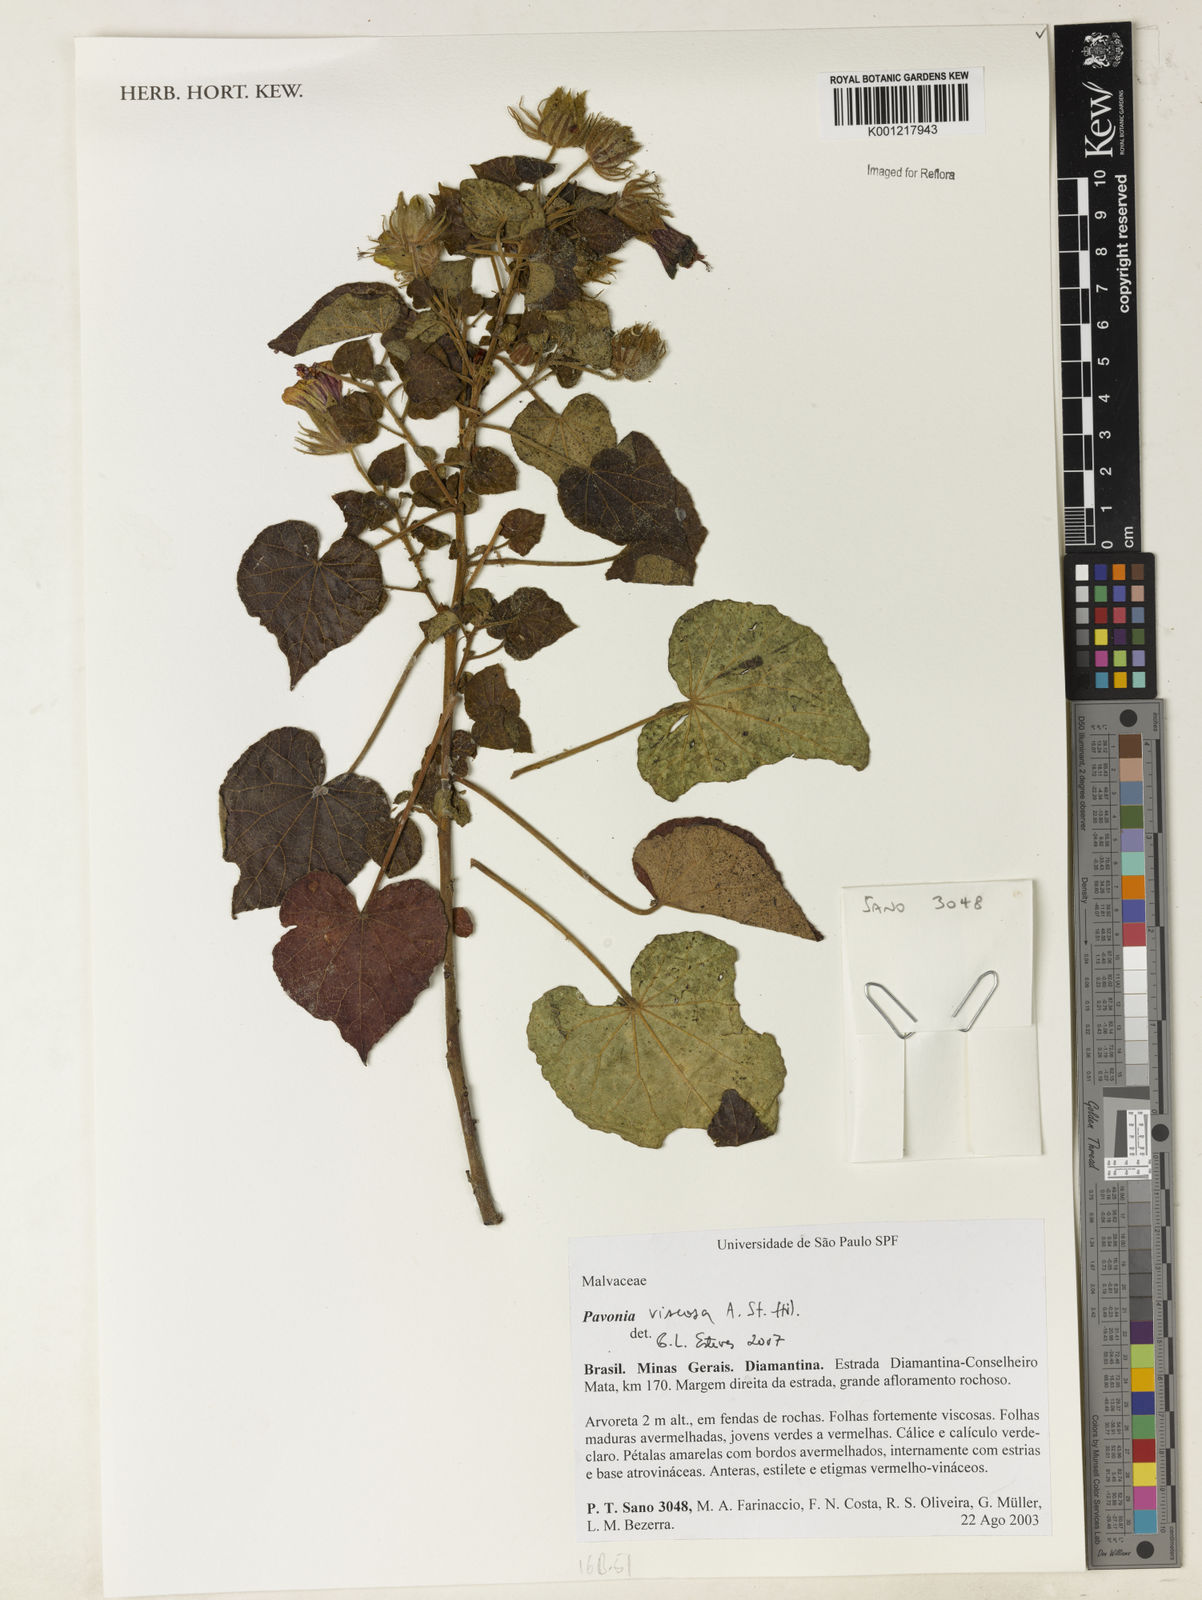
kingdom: Plantae
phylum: Tracheophyta
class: Magnoliopsida
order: Malvales
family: Malvaceae
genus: Pavonia
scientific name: Pavonia viscosa
